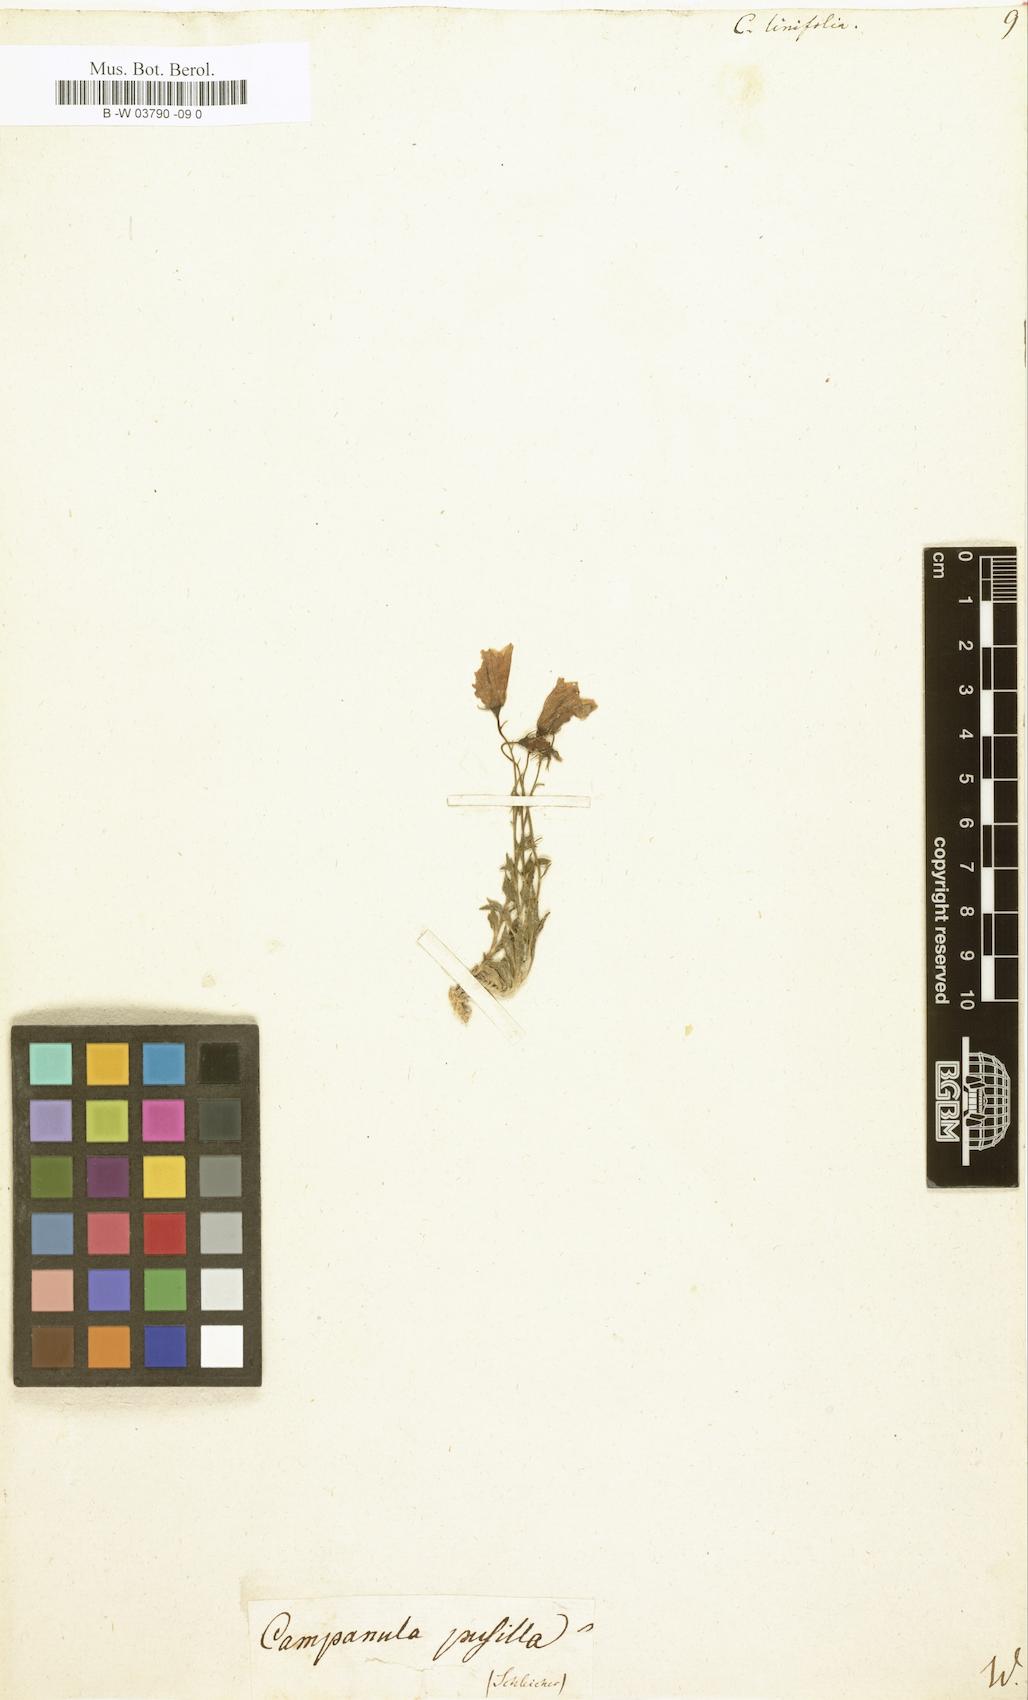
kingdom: Plantae
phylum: Tracheophyta
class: Magnoliopsida
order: Asterales
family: Campanulaceae
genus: Campanula
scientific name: Campanula
